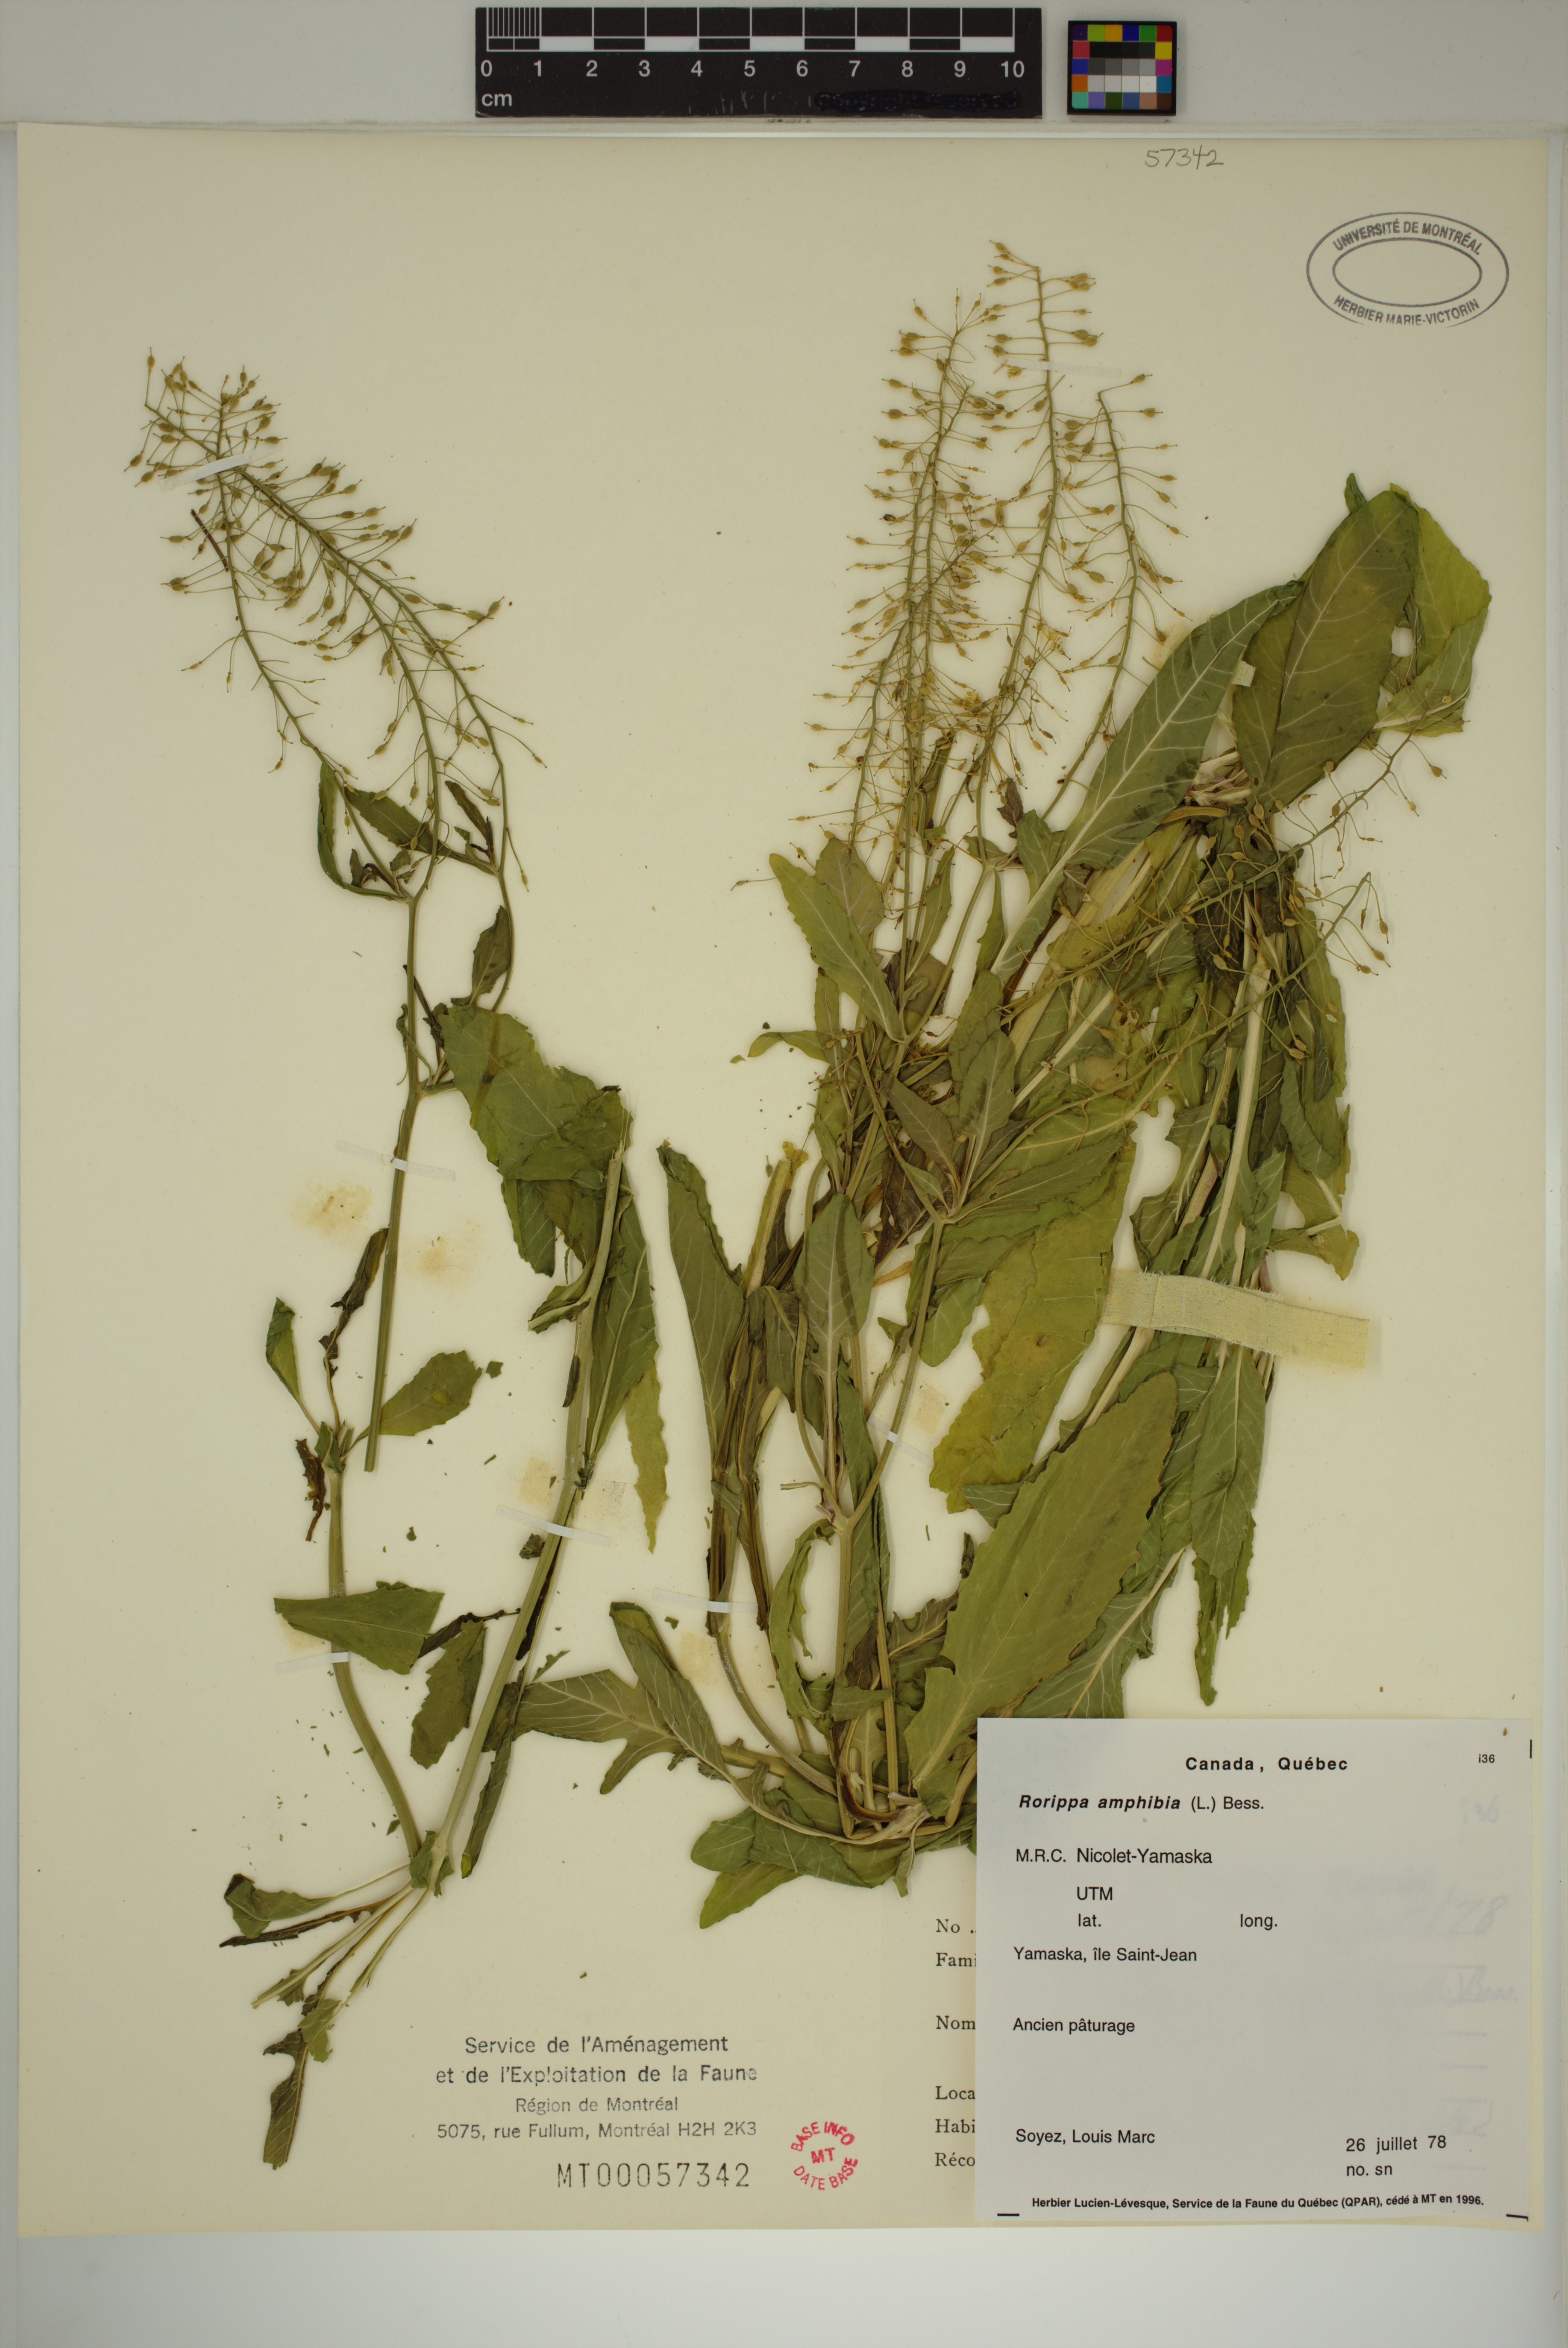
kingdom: Plantae
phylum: Tracheophyta
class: Magnoliopsida
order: Brassicales
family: Brassicaceae
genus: Rorippa
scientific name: Rorippa amphibia
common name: Great yellow-cress
